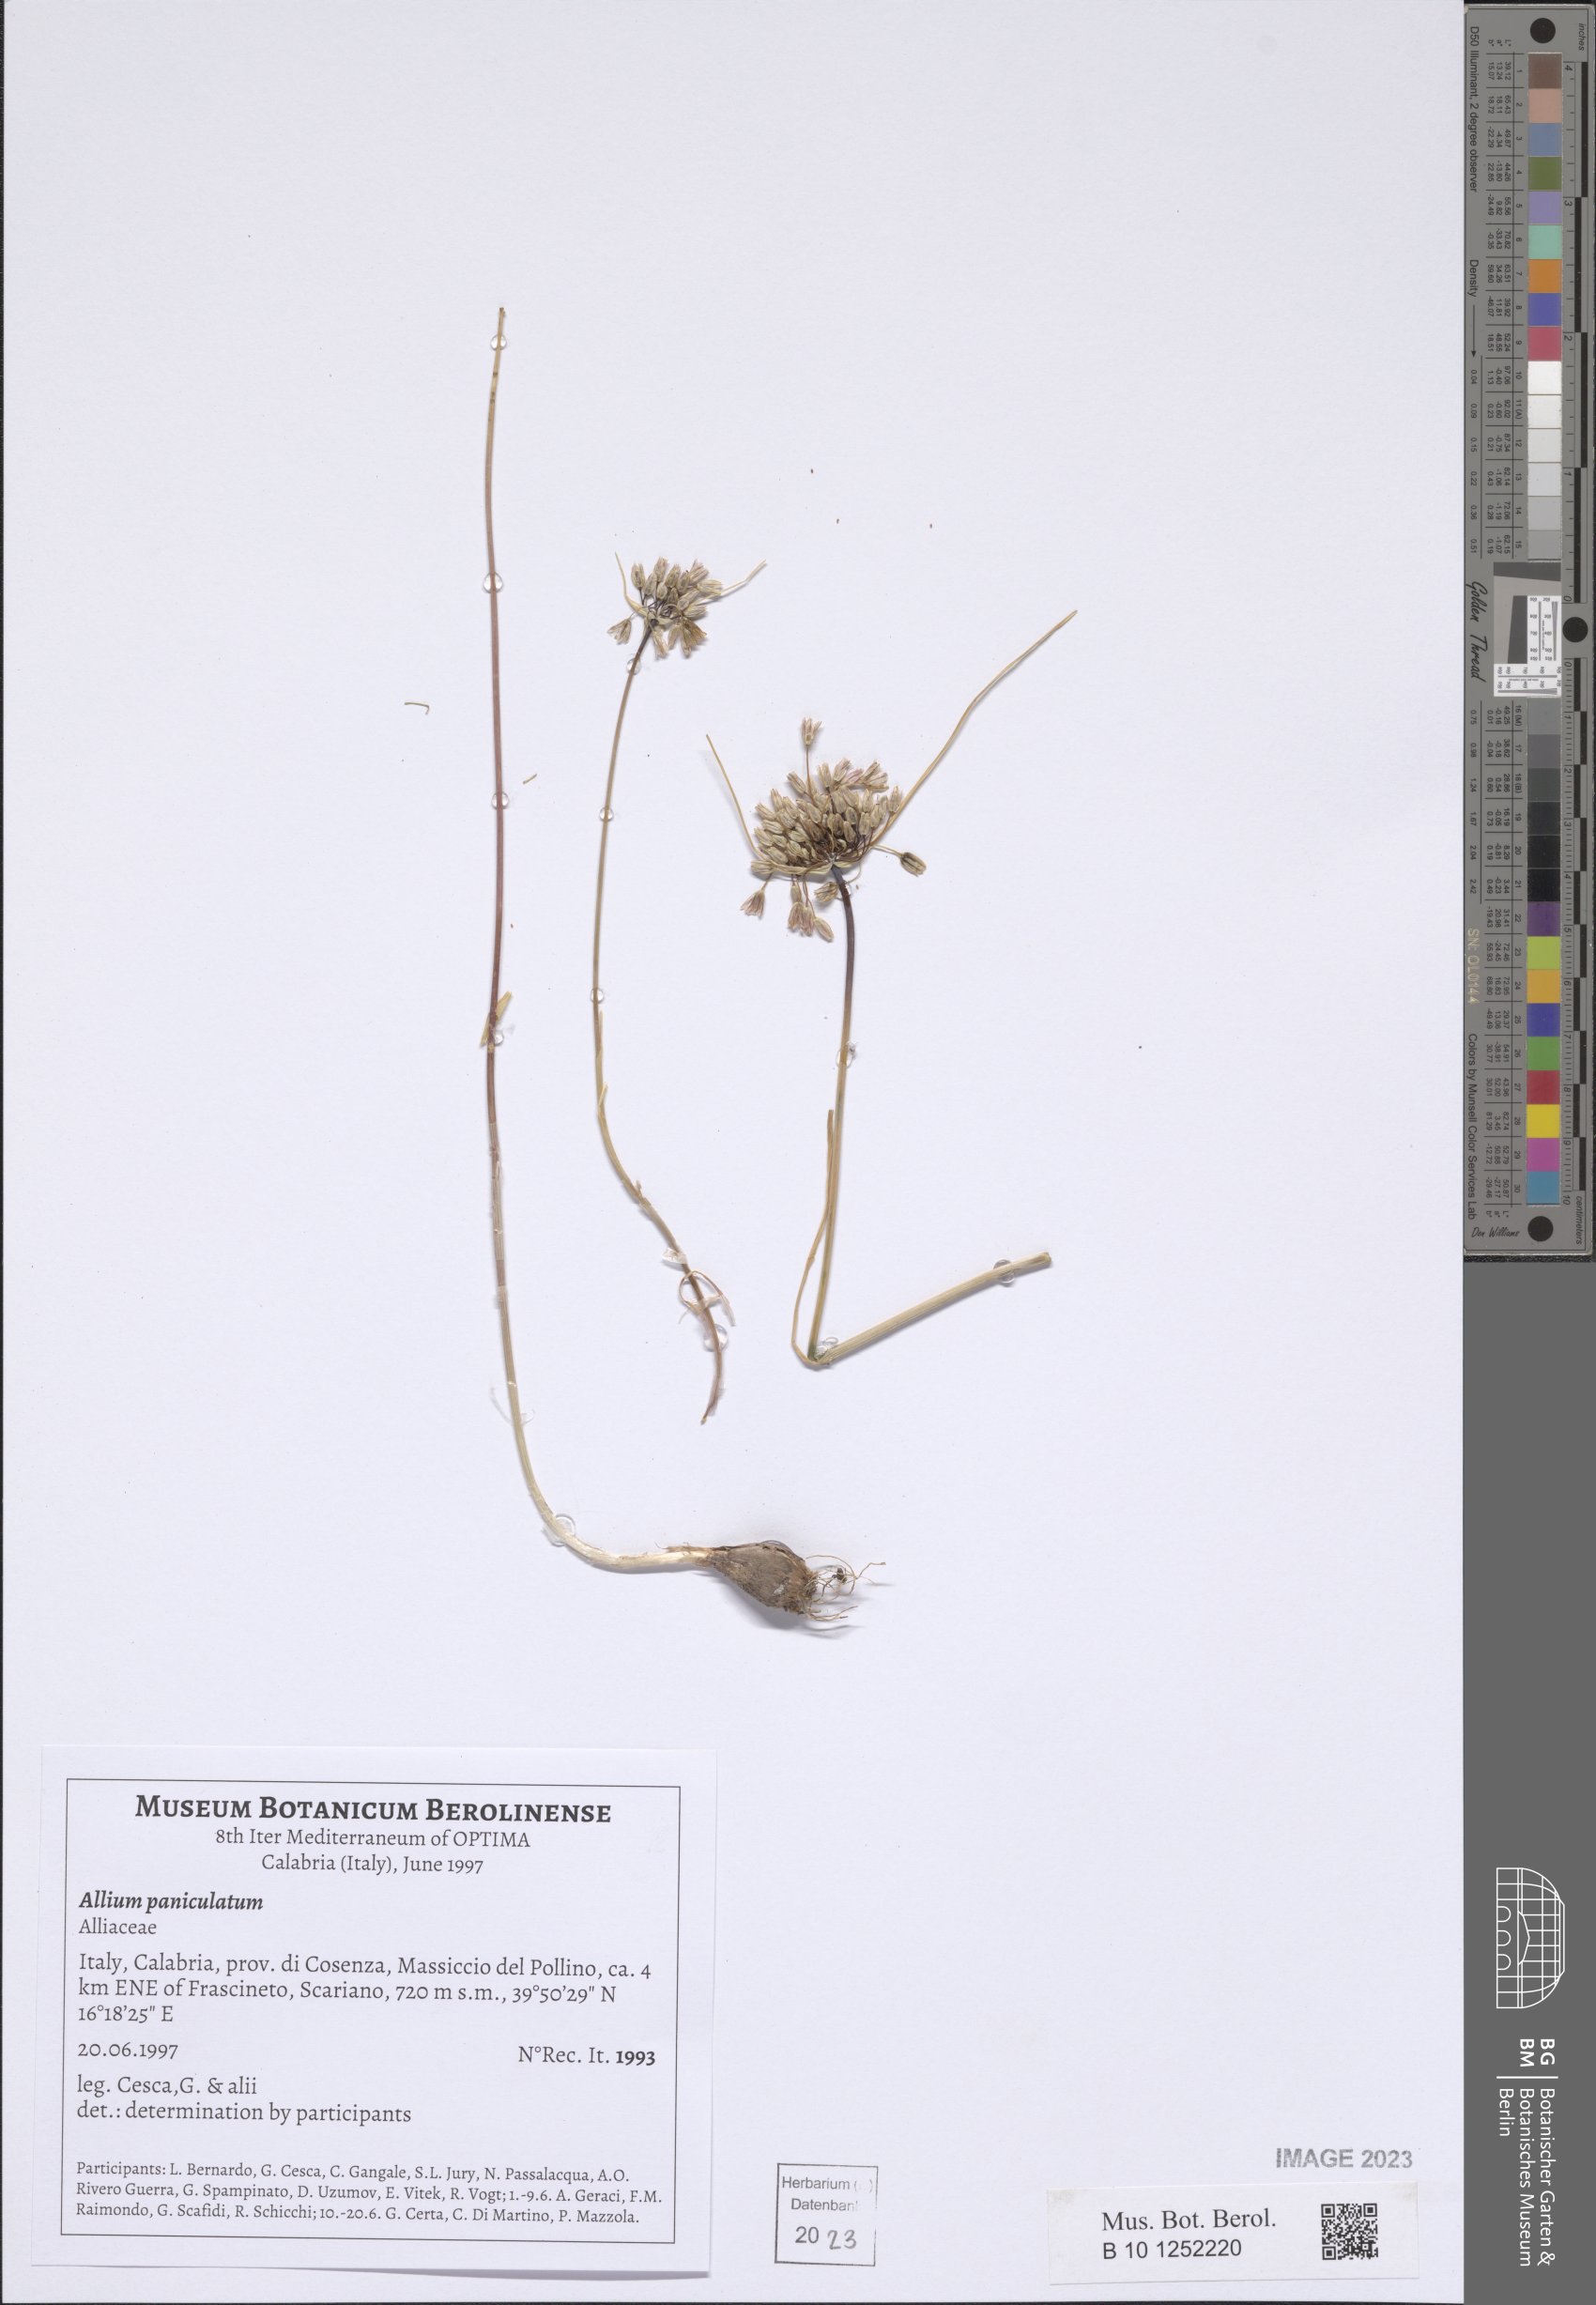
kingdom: Plantae
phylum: Tracheophyta
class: Liliopsida
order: Asparagales
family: Amaryllidaceae
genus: Allium
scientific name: Allium paniculatum
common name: Pale garlic
